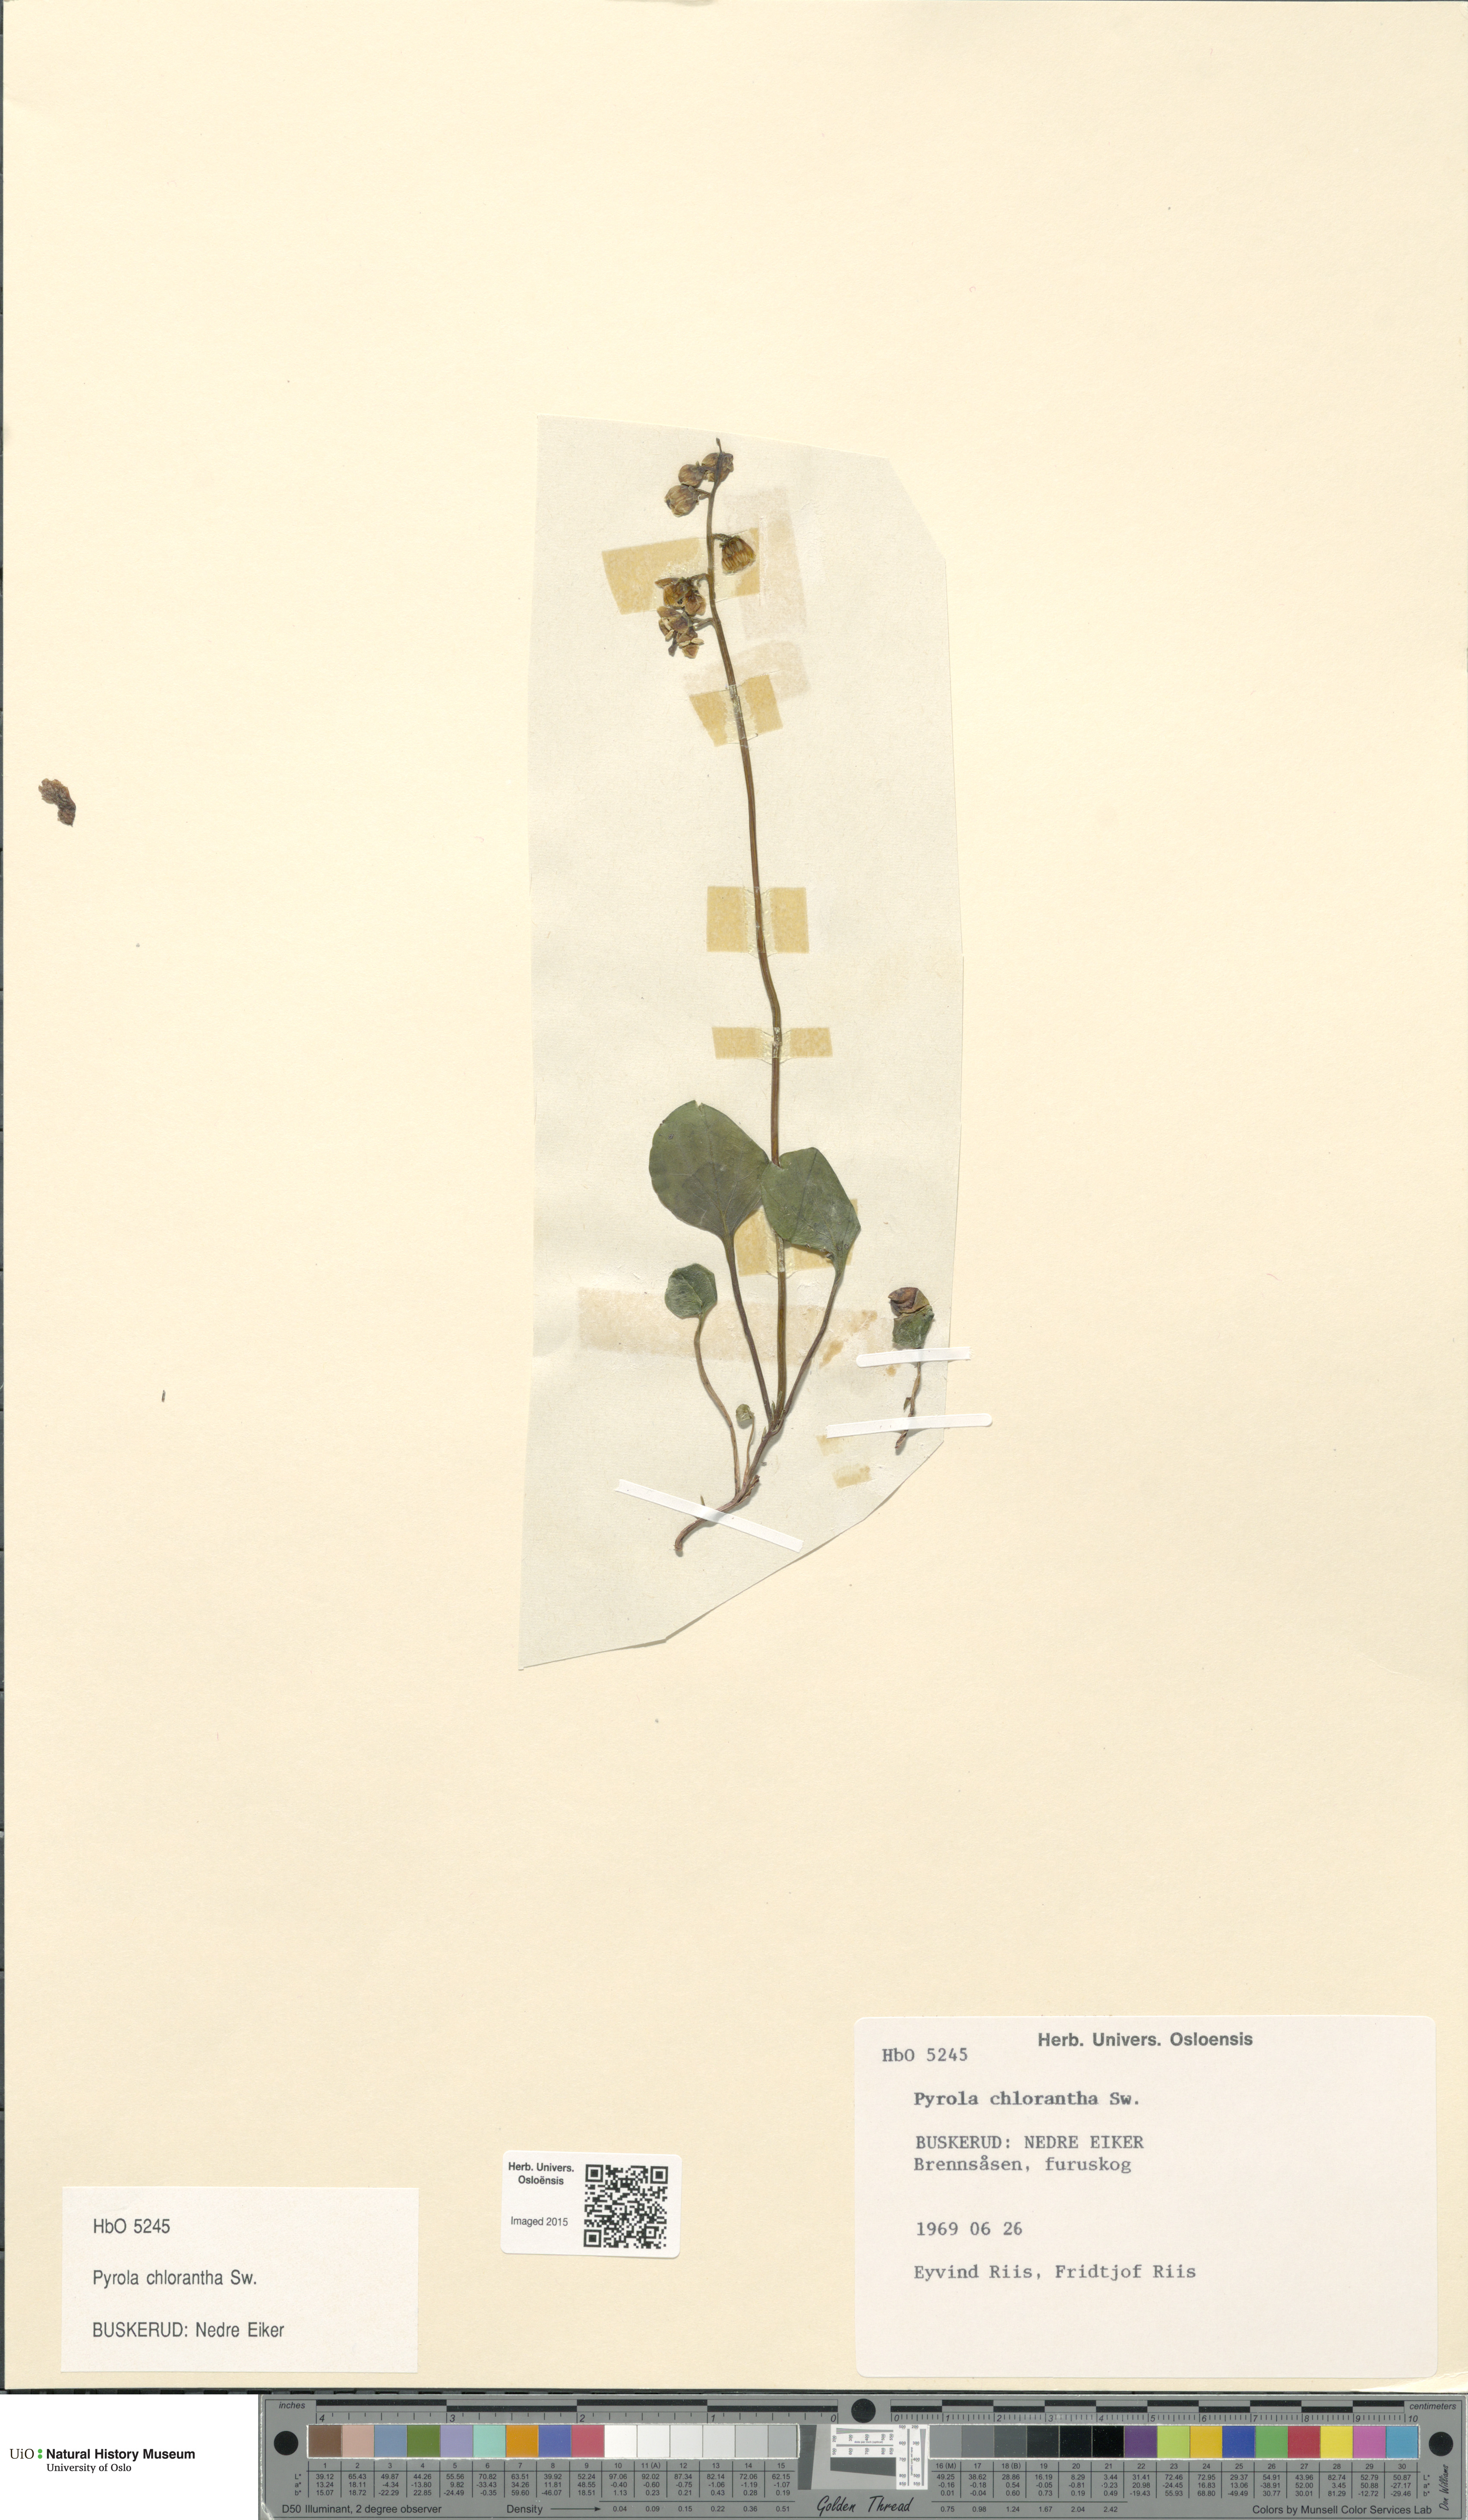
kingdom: Plantae
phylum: Tracheophyta
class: Magnoliopsida
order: Ericales
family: Ericaceae
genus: Pyrola
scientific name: Pyrola chlorantha
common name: Green wintergreen
